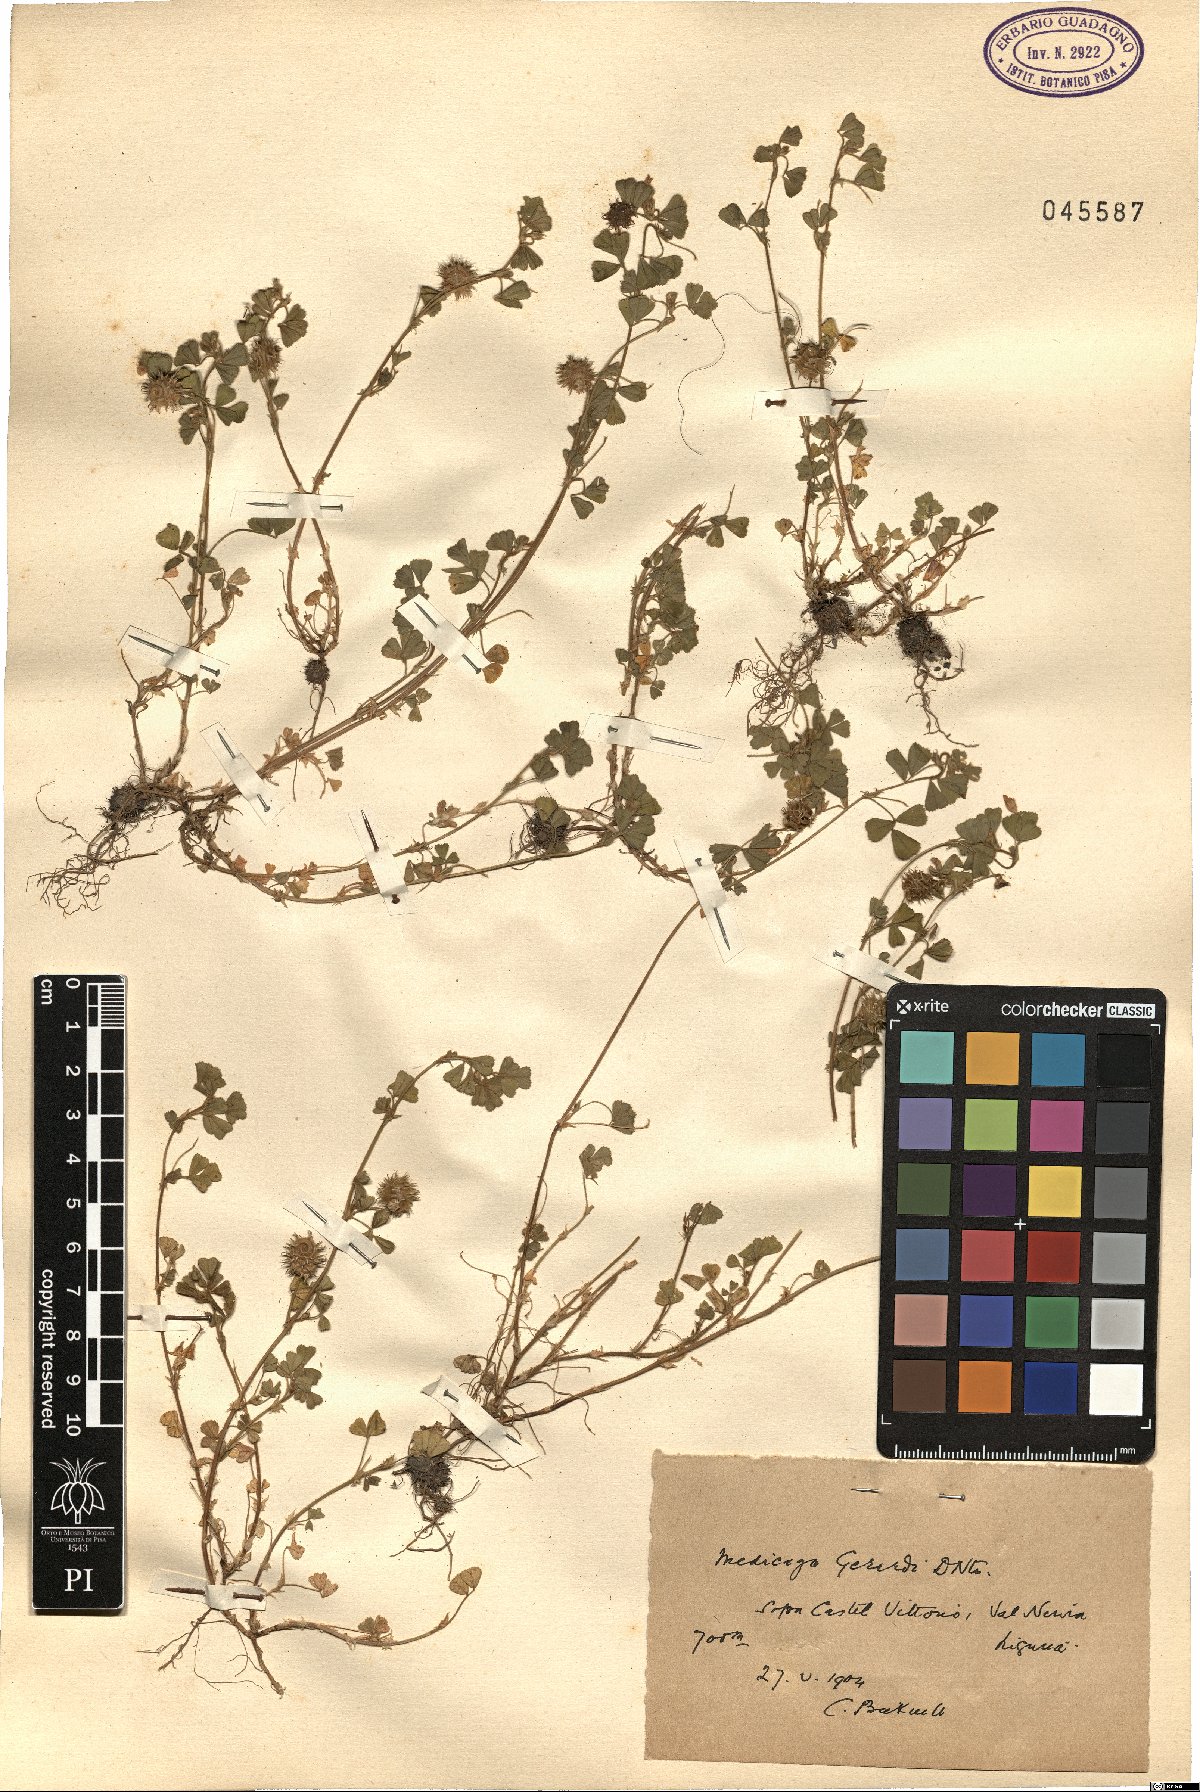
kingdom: Plantae
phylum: Tracheophyta
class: Magnoliopsida
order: Fabales
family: Fabaceae
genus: Medicago
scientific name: Medicago rigidula
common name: Tifton medic
